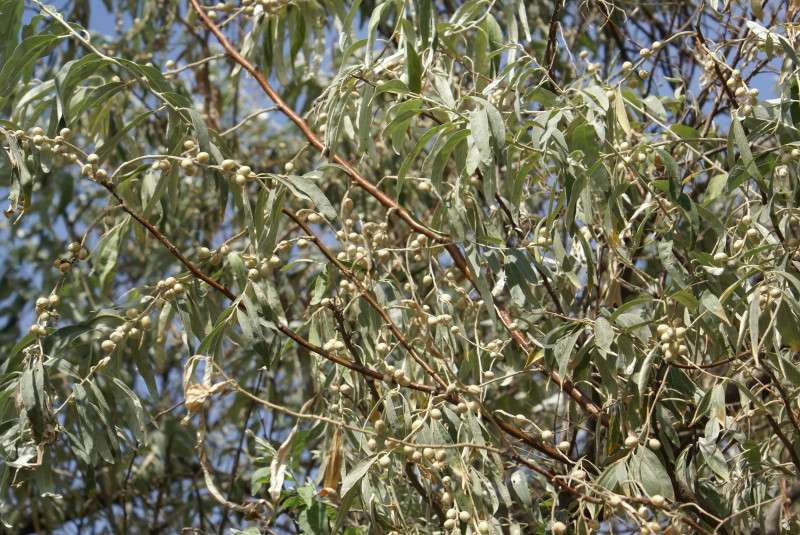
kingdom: Plantae
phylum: Tracheophyta
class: Magnoliopsida
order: Rosales
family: Elaeagnaceae
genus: Elaeagnus
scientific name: Elaeagnus angustifolia
